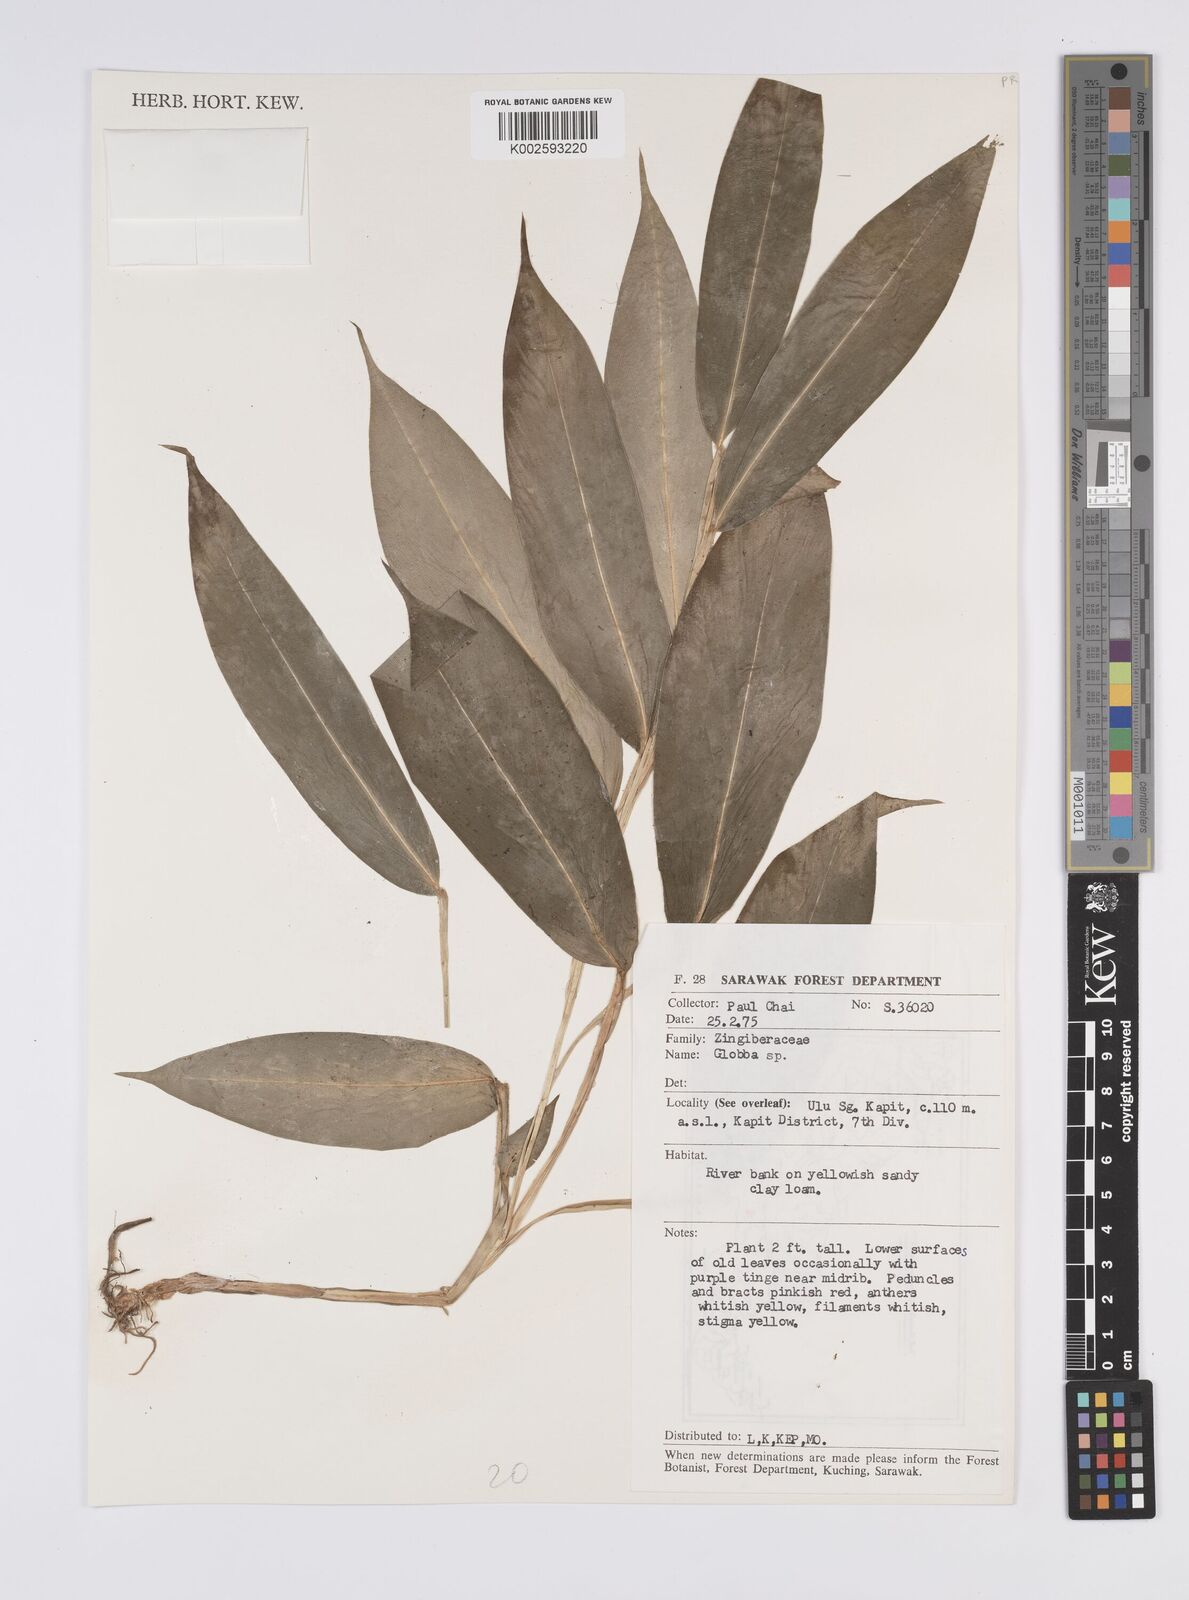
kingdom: Plantae
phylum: Tracheophyta
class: Liliopsida
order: Zingiberales
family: Zingiberaceae
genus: Globba
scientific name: Globba
